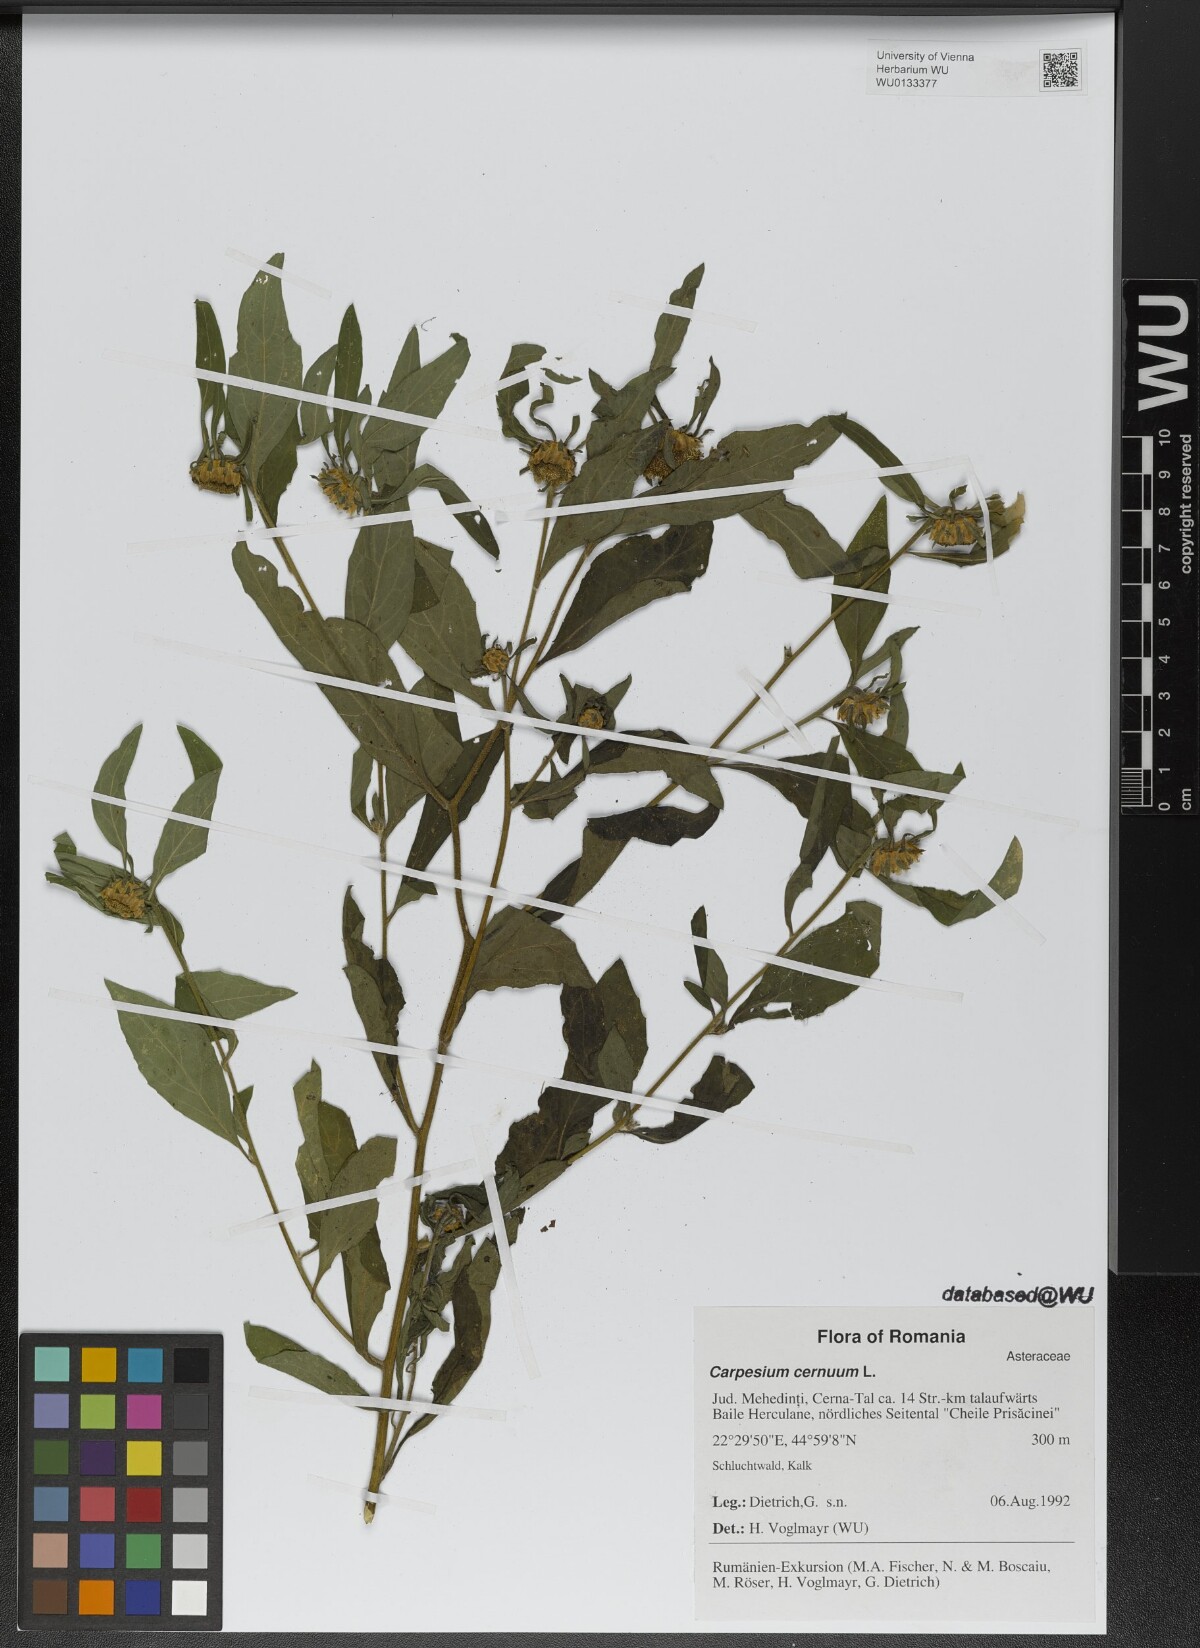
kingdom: Plantae
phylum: Tracheophyta
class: Magnoliopsida
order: Asterales
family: Asteraceae
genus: Carpesium
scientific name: Carpesium cernuum
